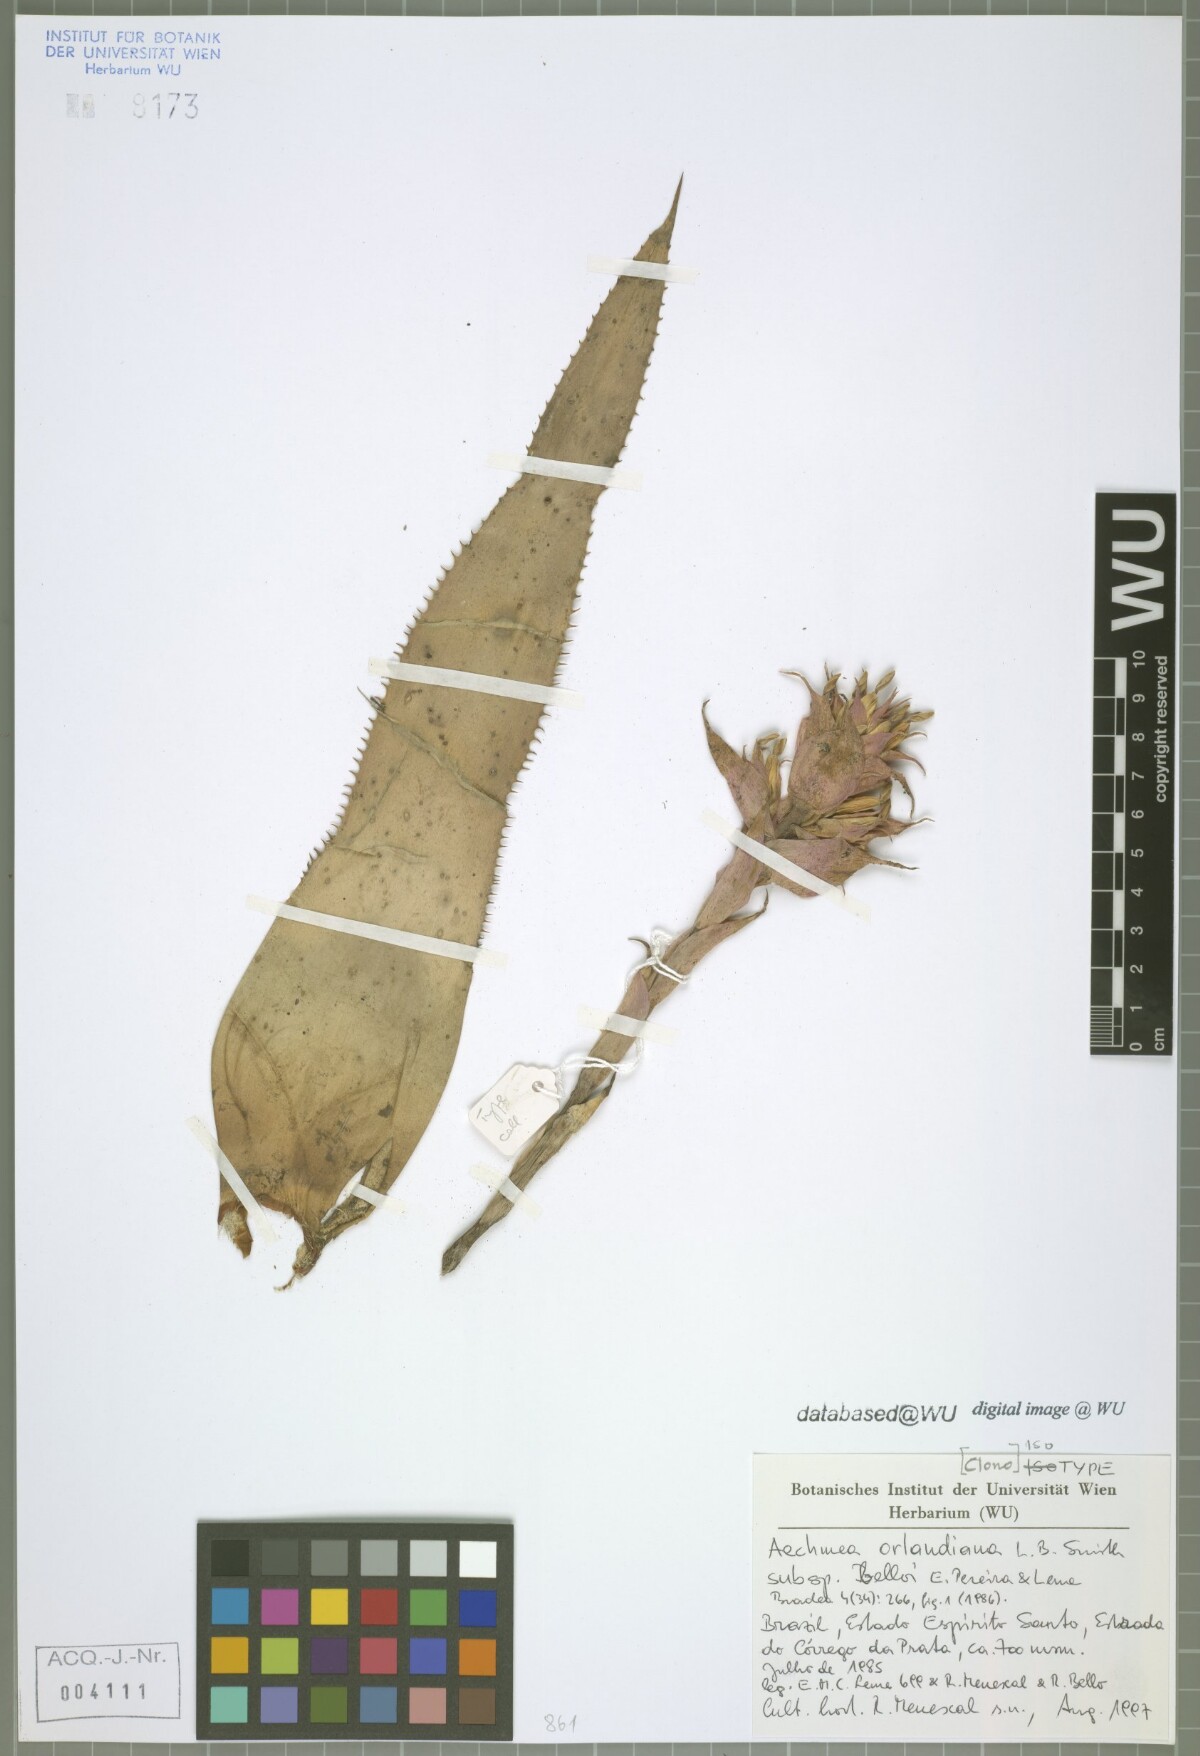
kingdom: Plantae
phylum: Tracheophyta
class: Liliopsida
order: Poales
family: Bromeliaceae
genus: Aechmea
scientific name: Aechmea orlandiana
